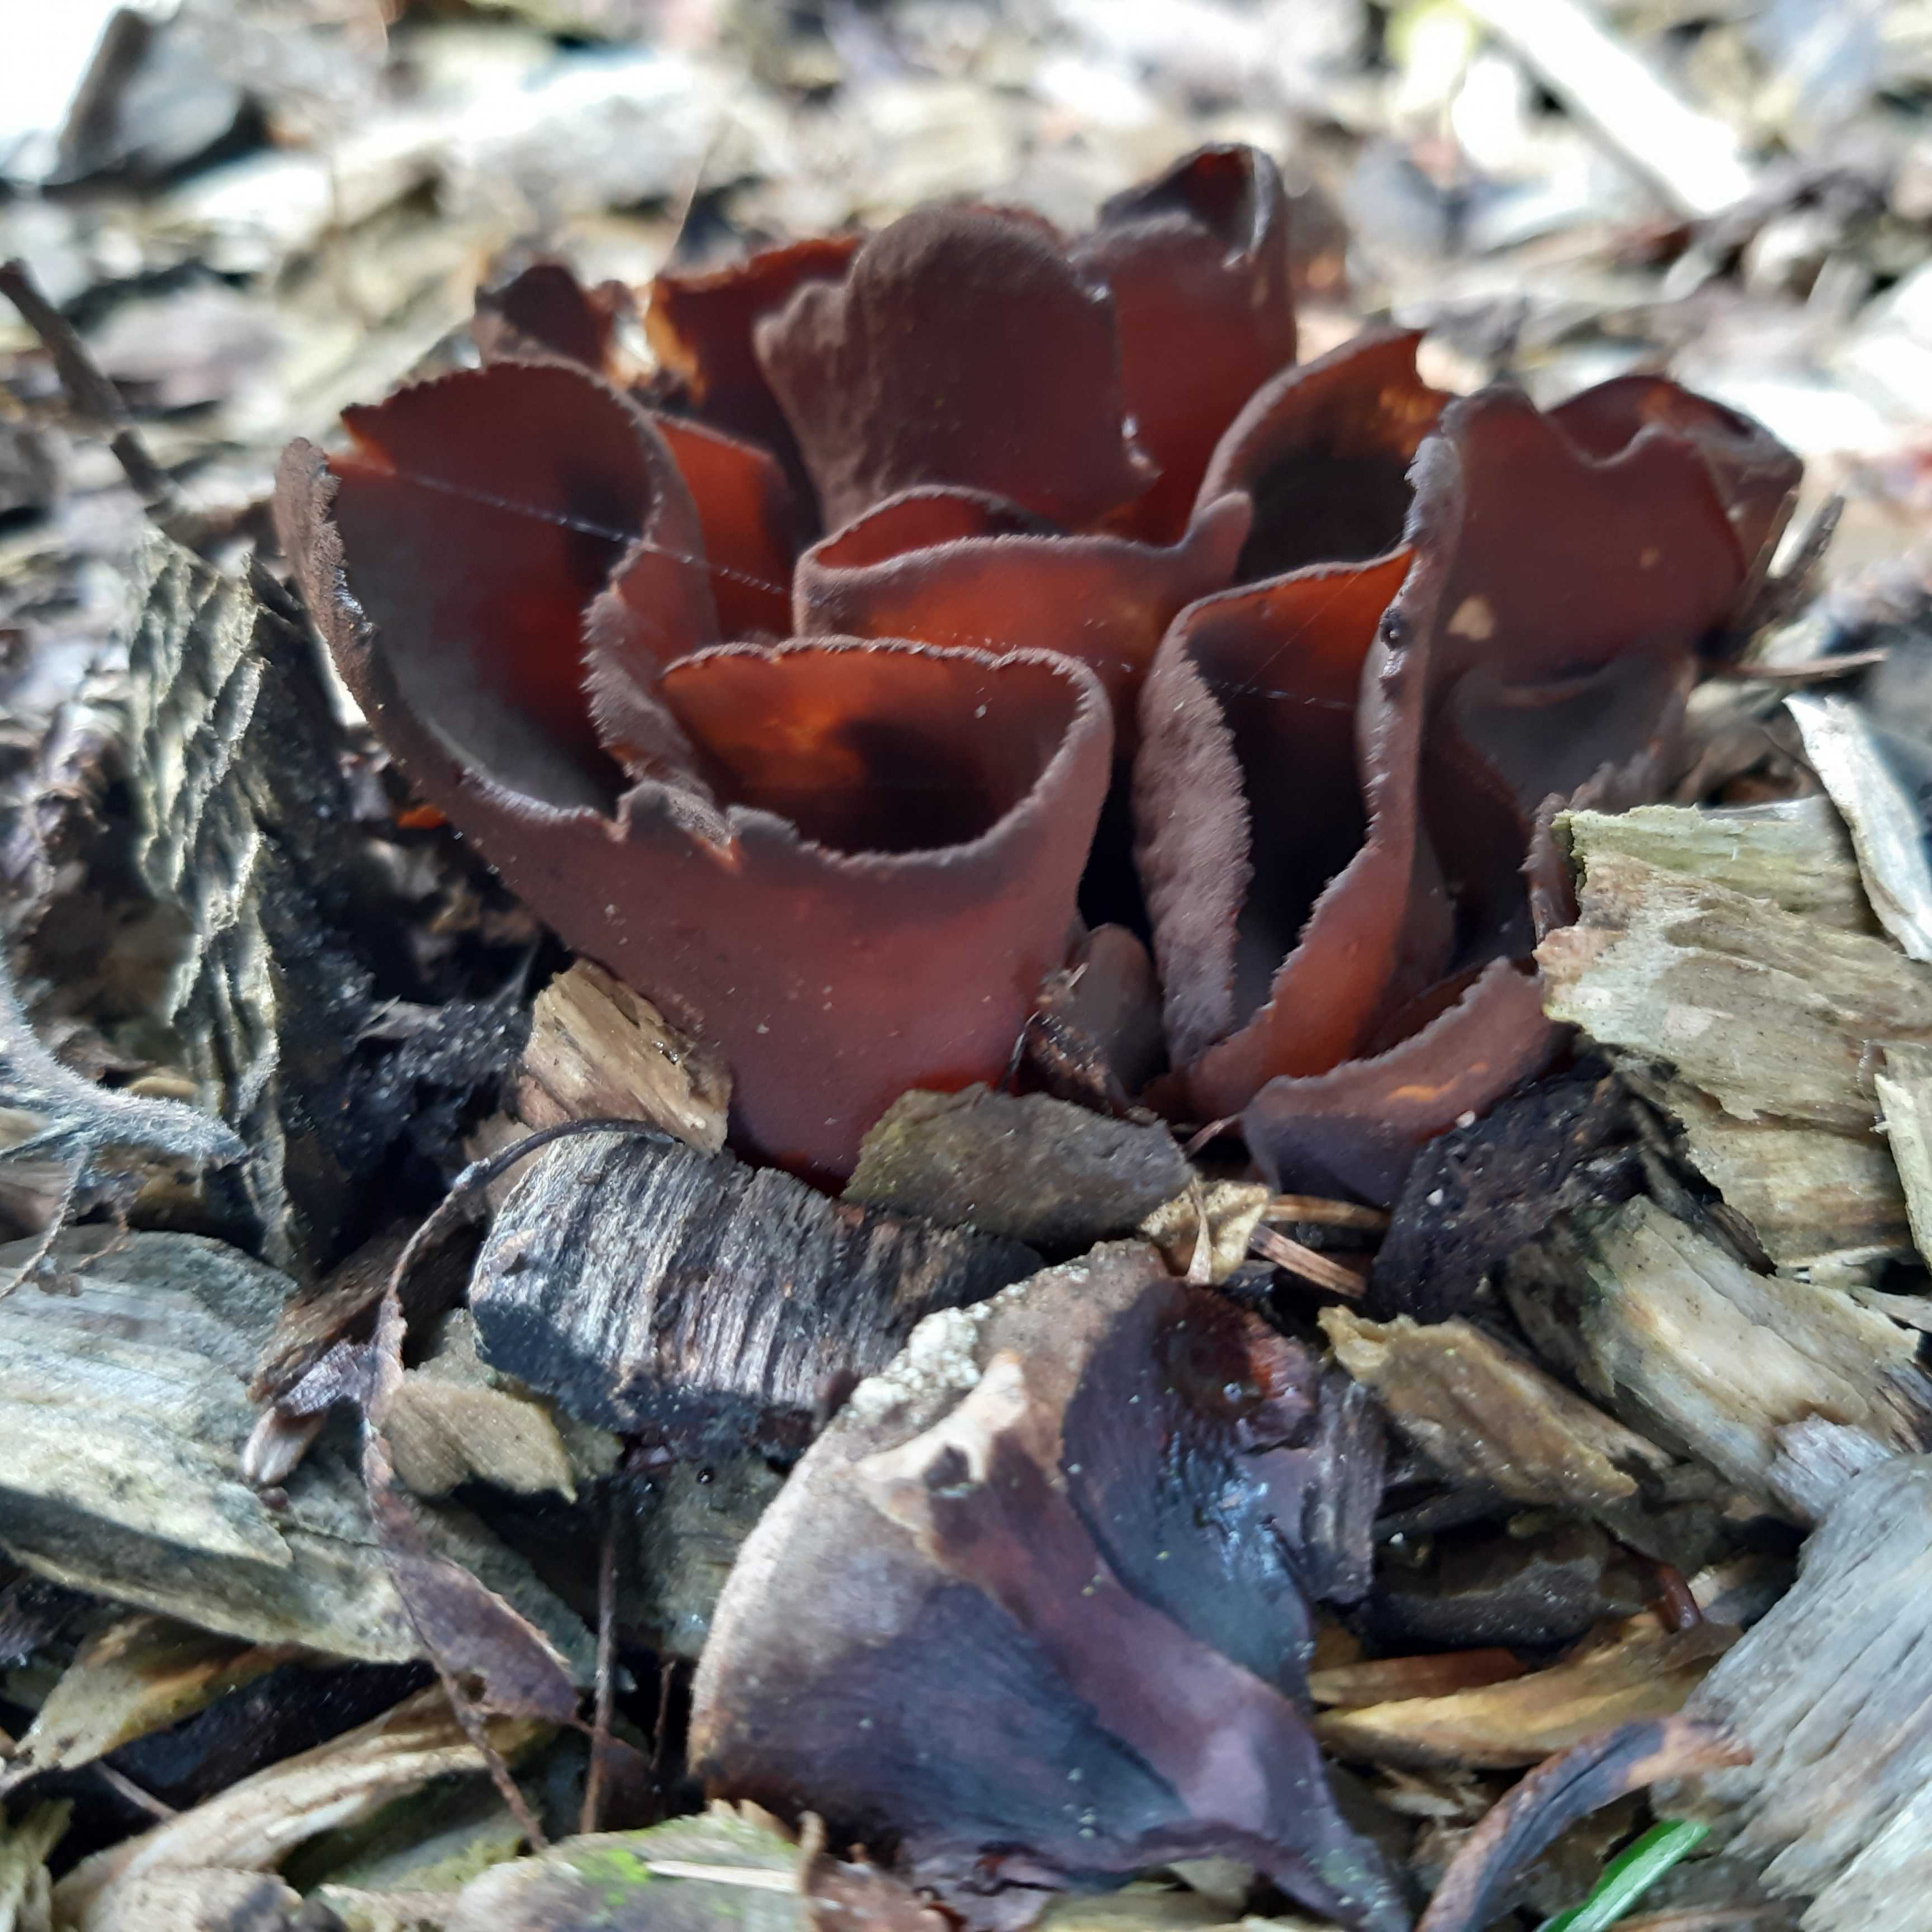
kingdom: Fungi
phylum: Ascomycota
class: Pezizomycetes
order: Pezizales
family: Otideaceae
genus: Otidea
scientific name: Otidea bufonia
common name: brun ørebæger
